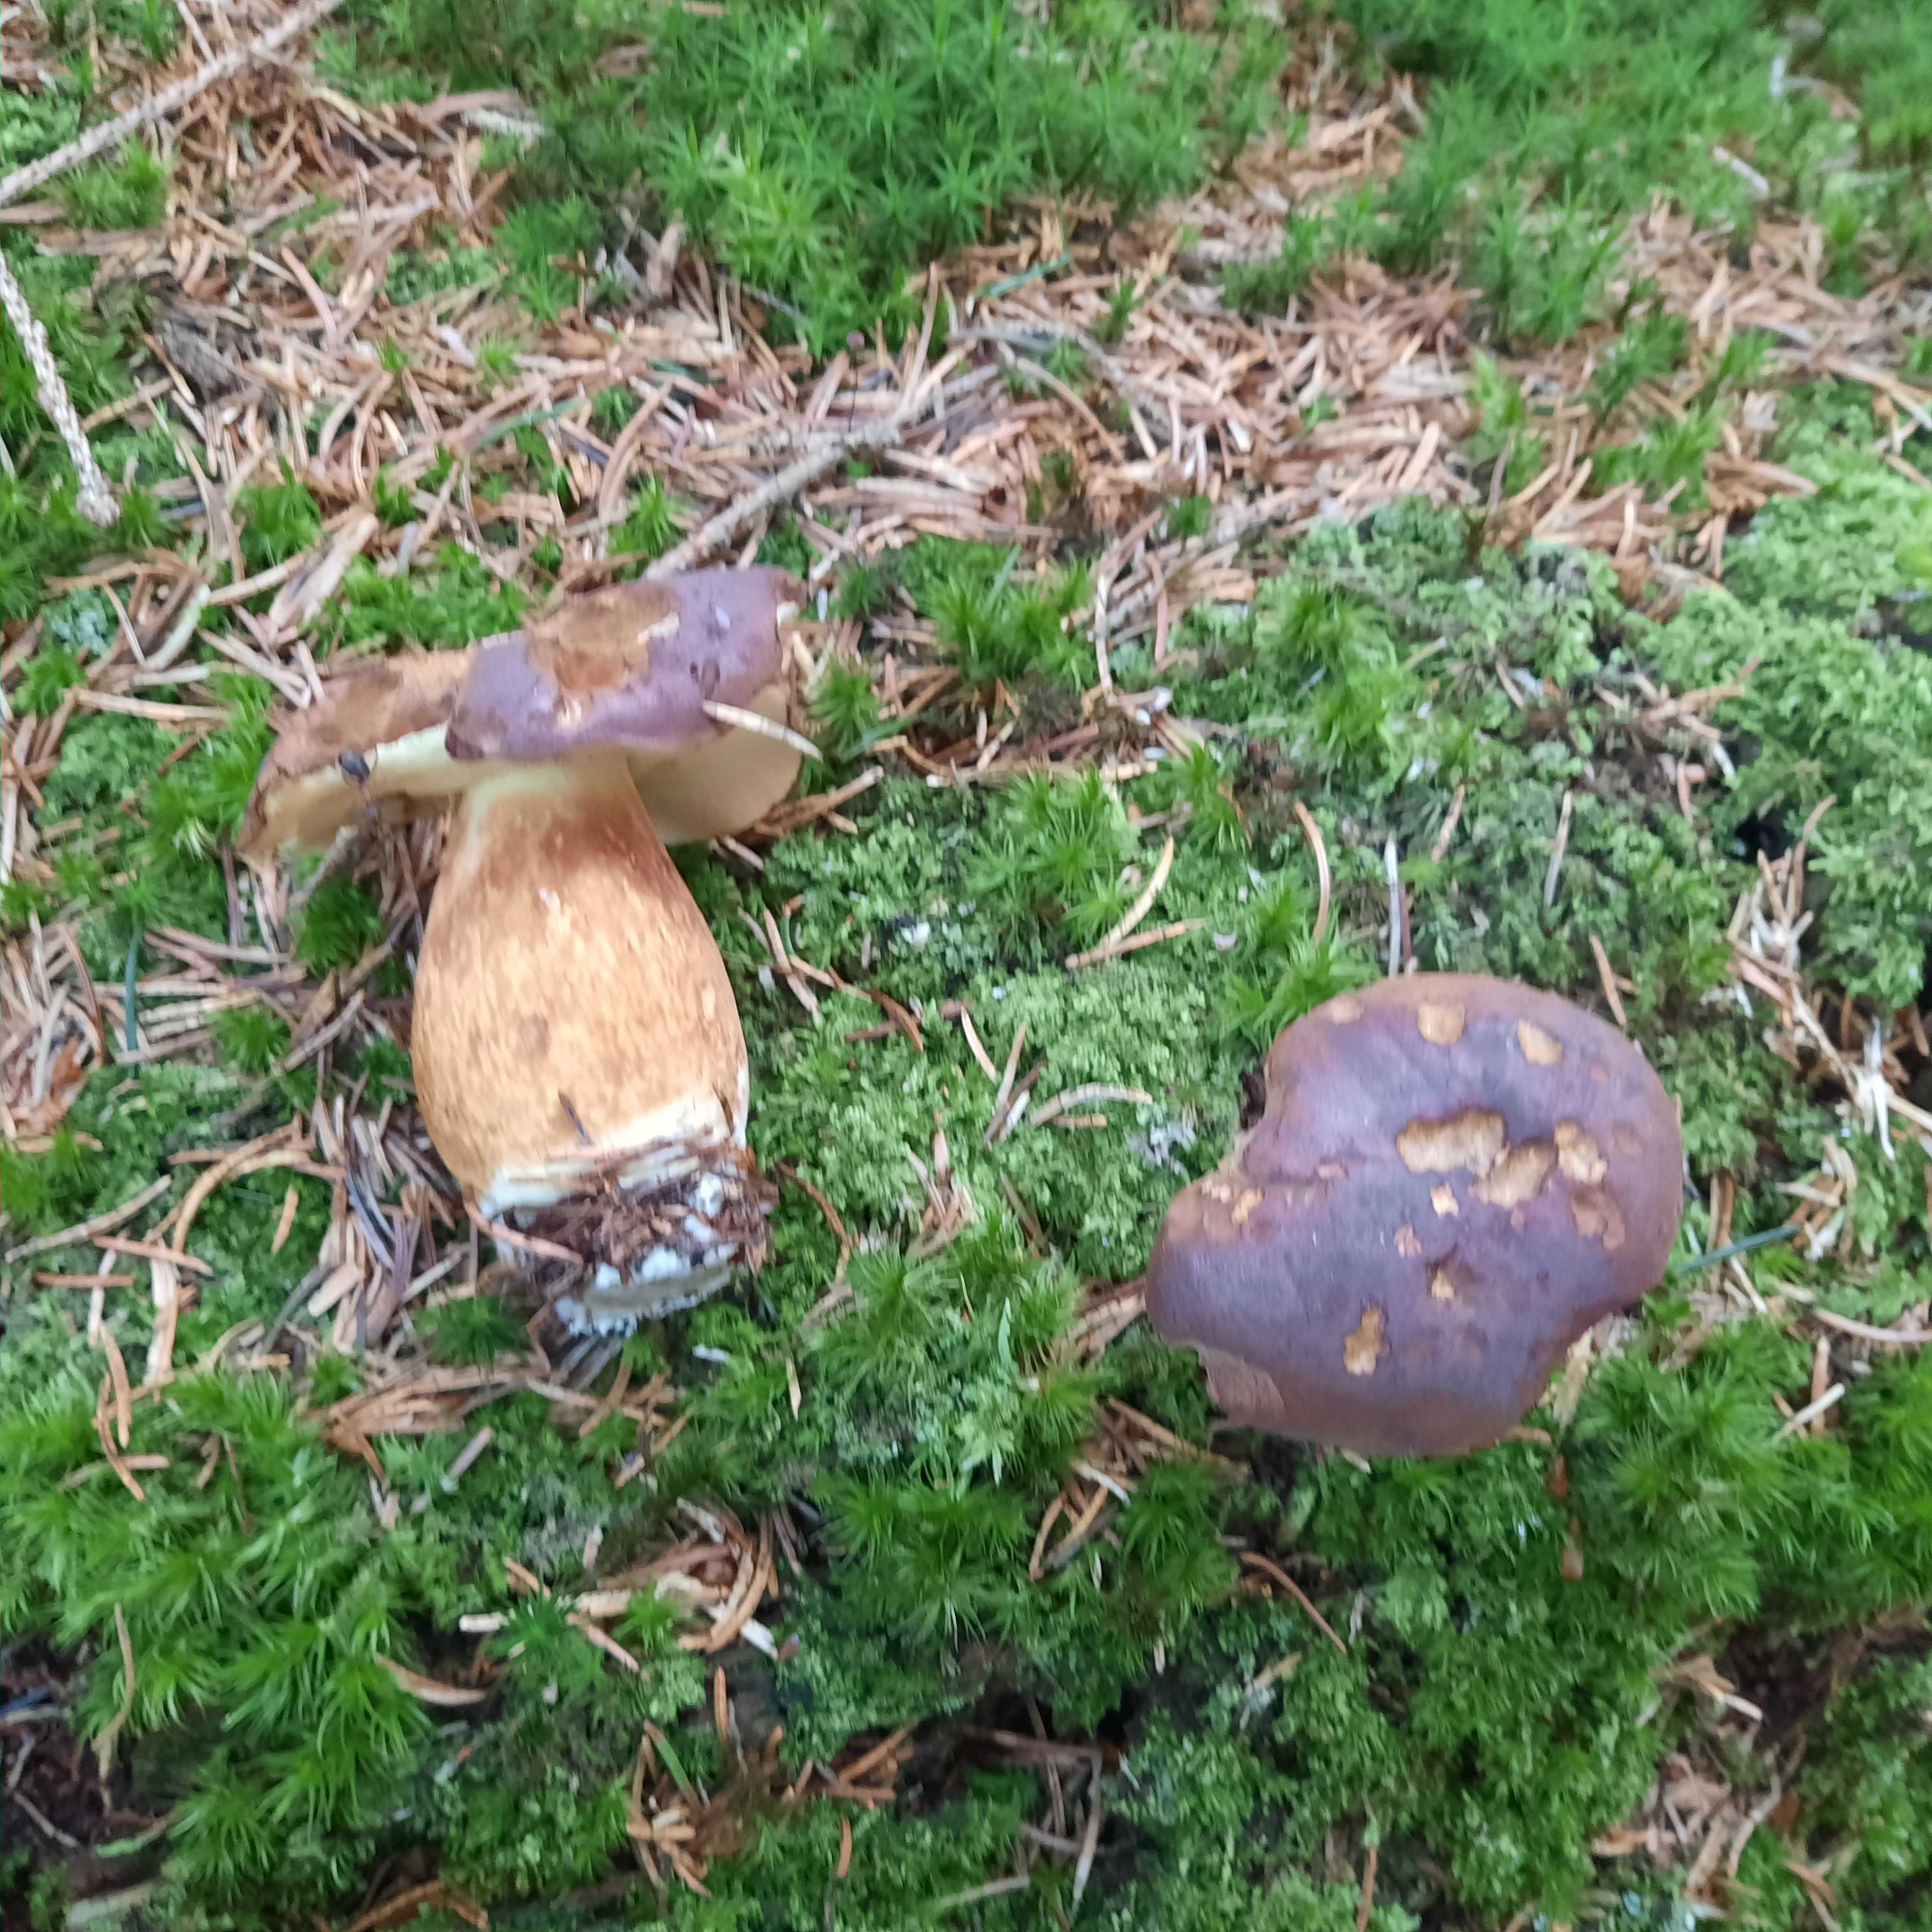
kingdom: Fungi
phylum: Basidiomycota
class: Agaricomycetes
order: Boletales
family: Boletaceae
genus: Imleria
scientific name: Imleria badia
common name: brunstokket rørhat
